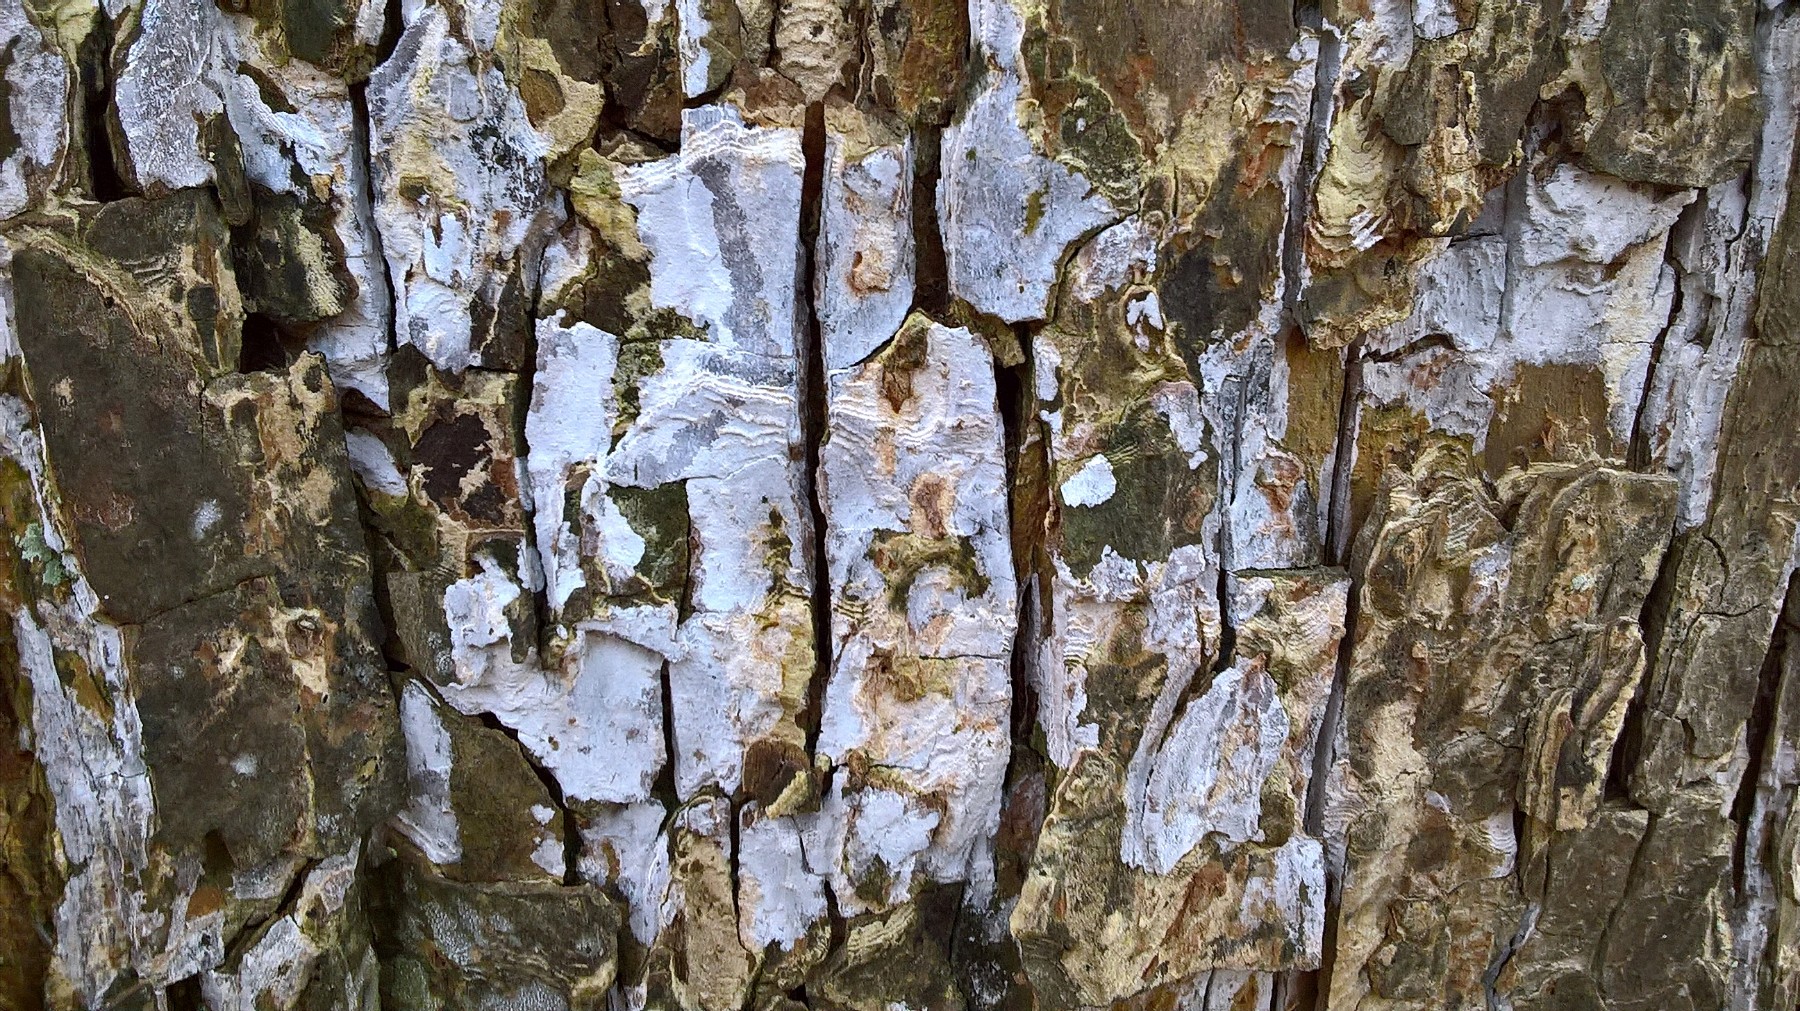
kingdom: Fungi
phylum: Basidiomycota
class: Agaricomycetes
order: Agaricales
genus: Dendrothele
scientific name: Dendrothele acerina
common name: navr-kalkplet
